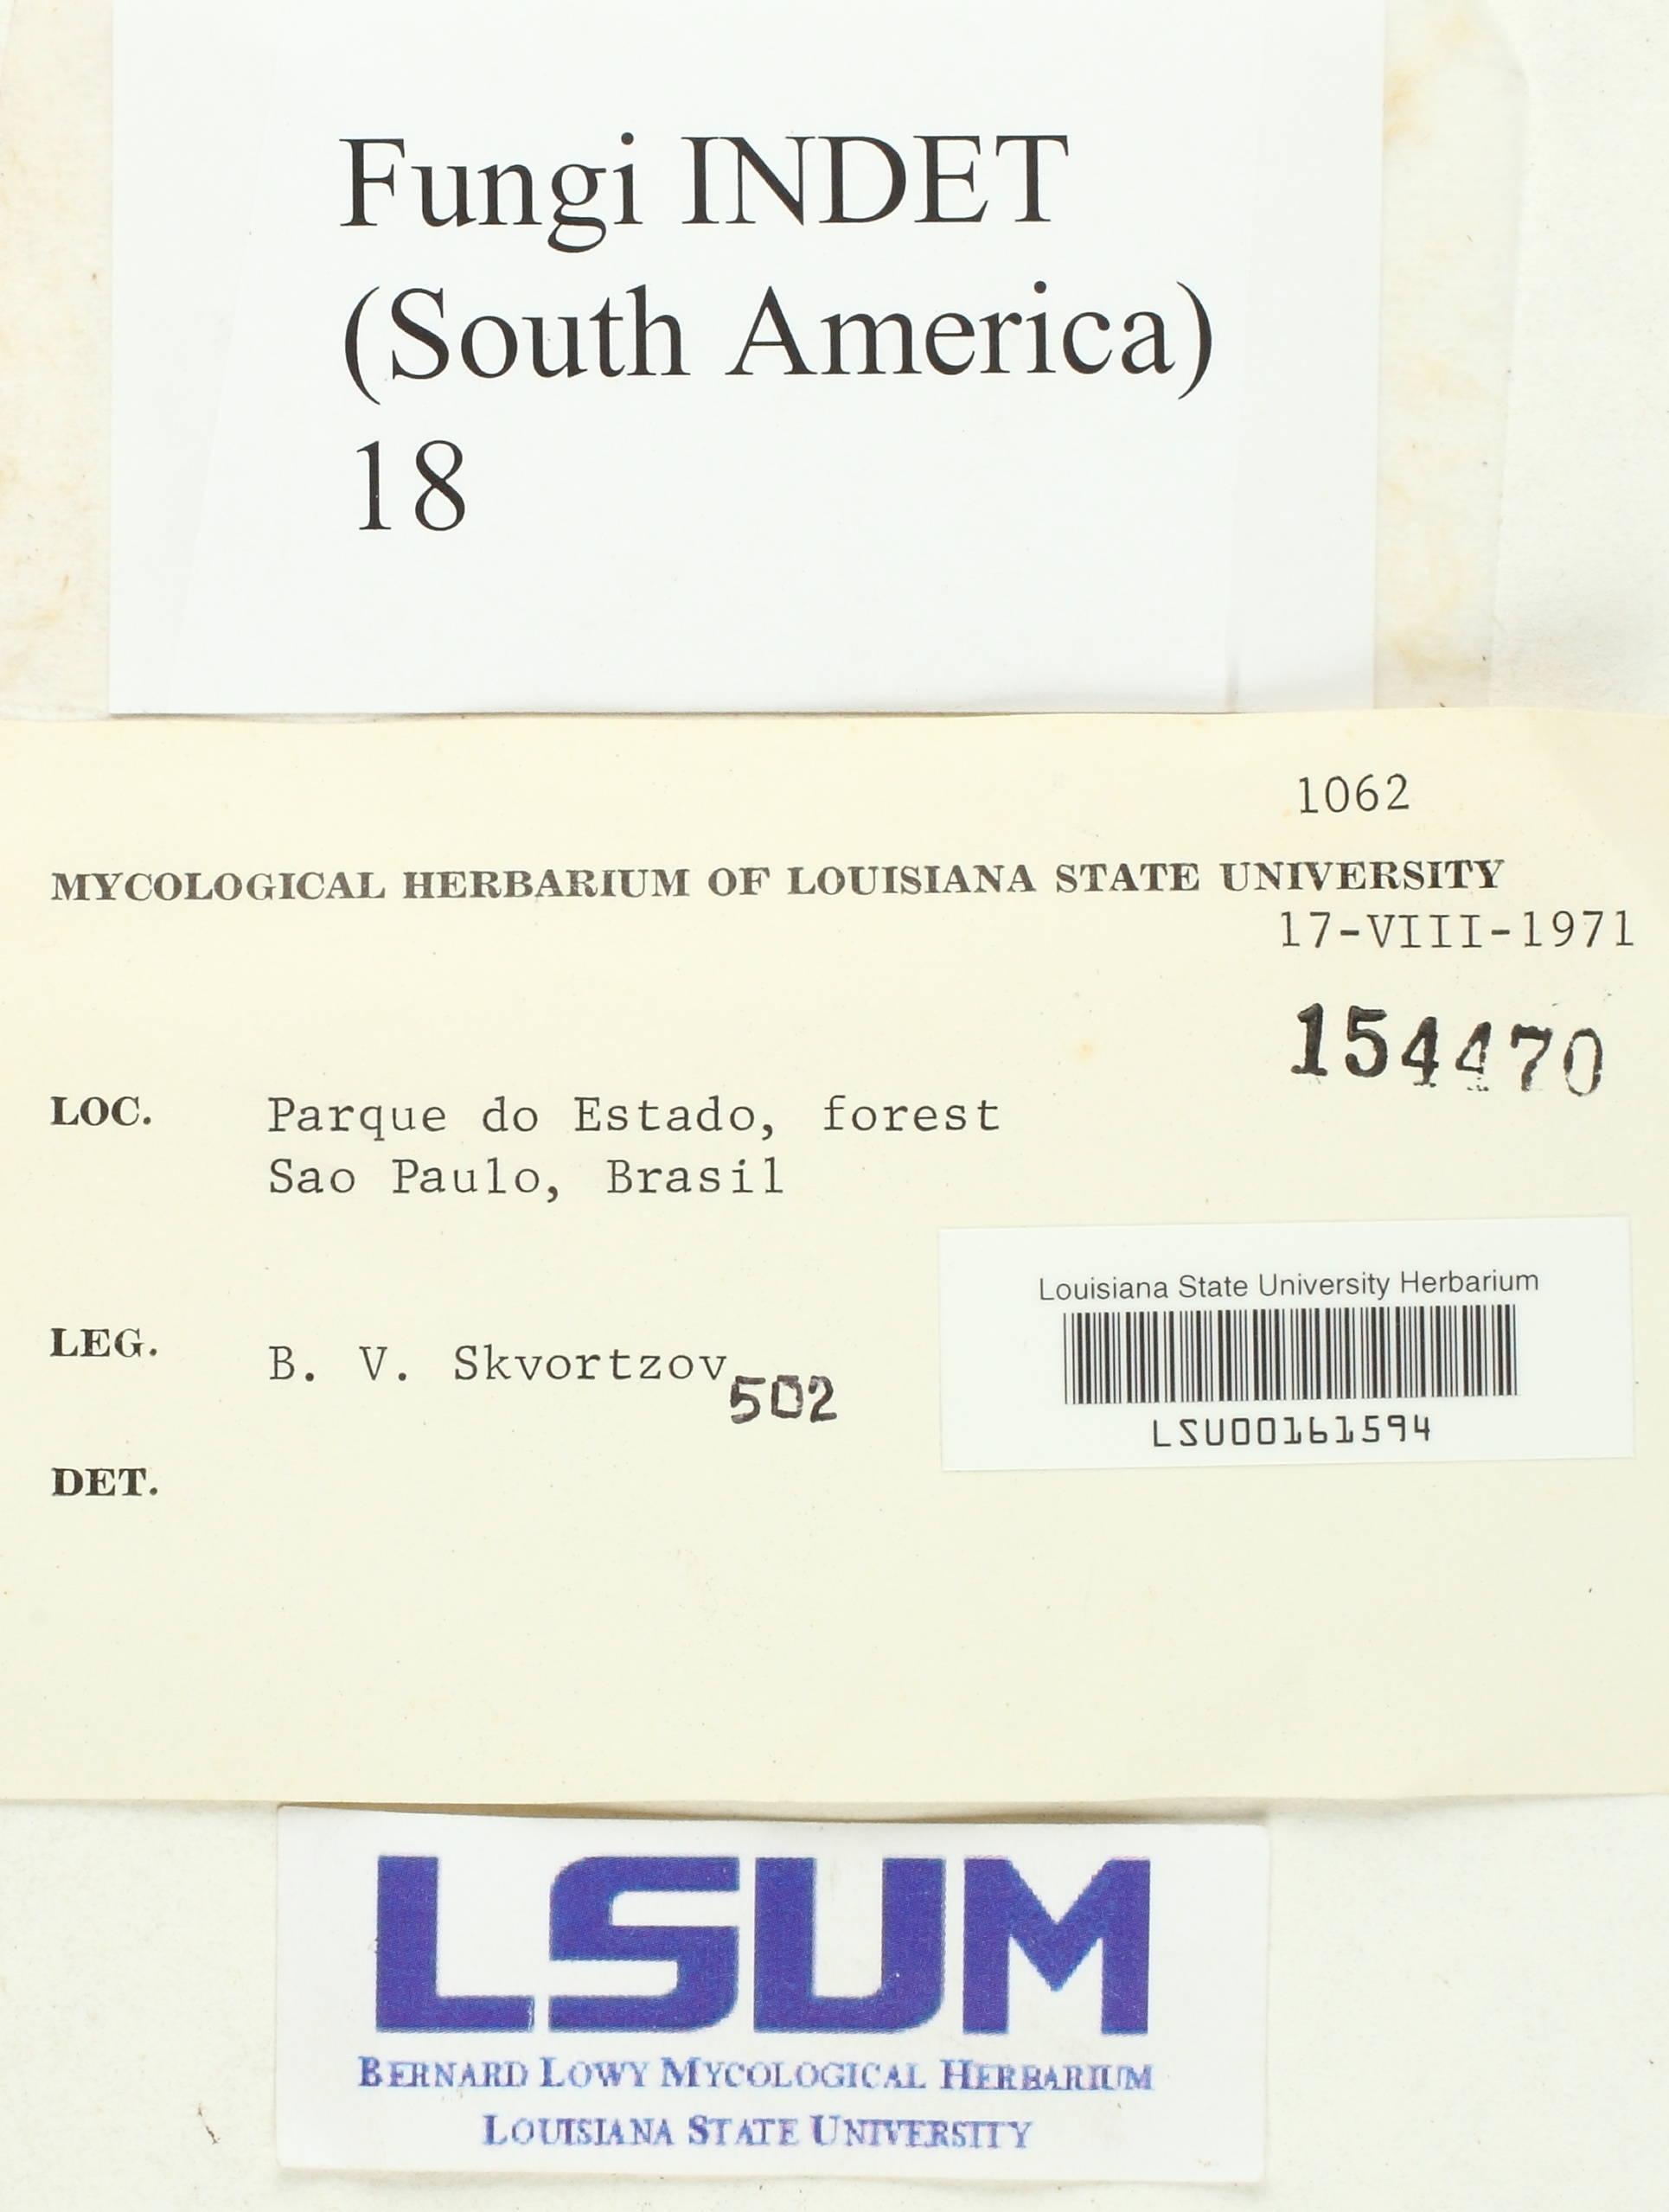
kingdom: Fungi
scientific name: Fungi
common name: Fungi
